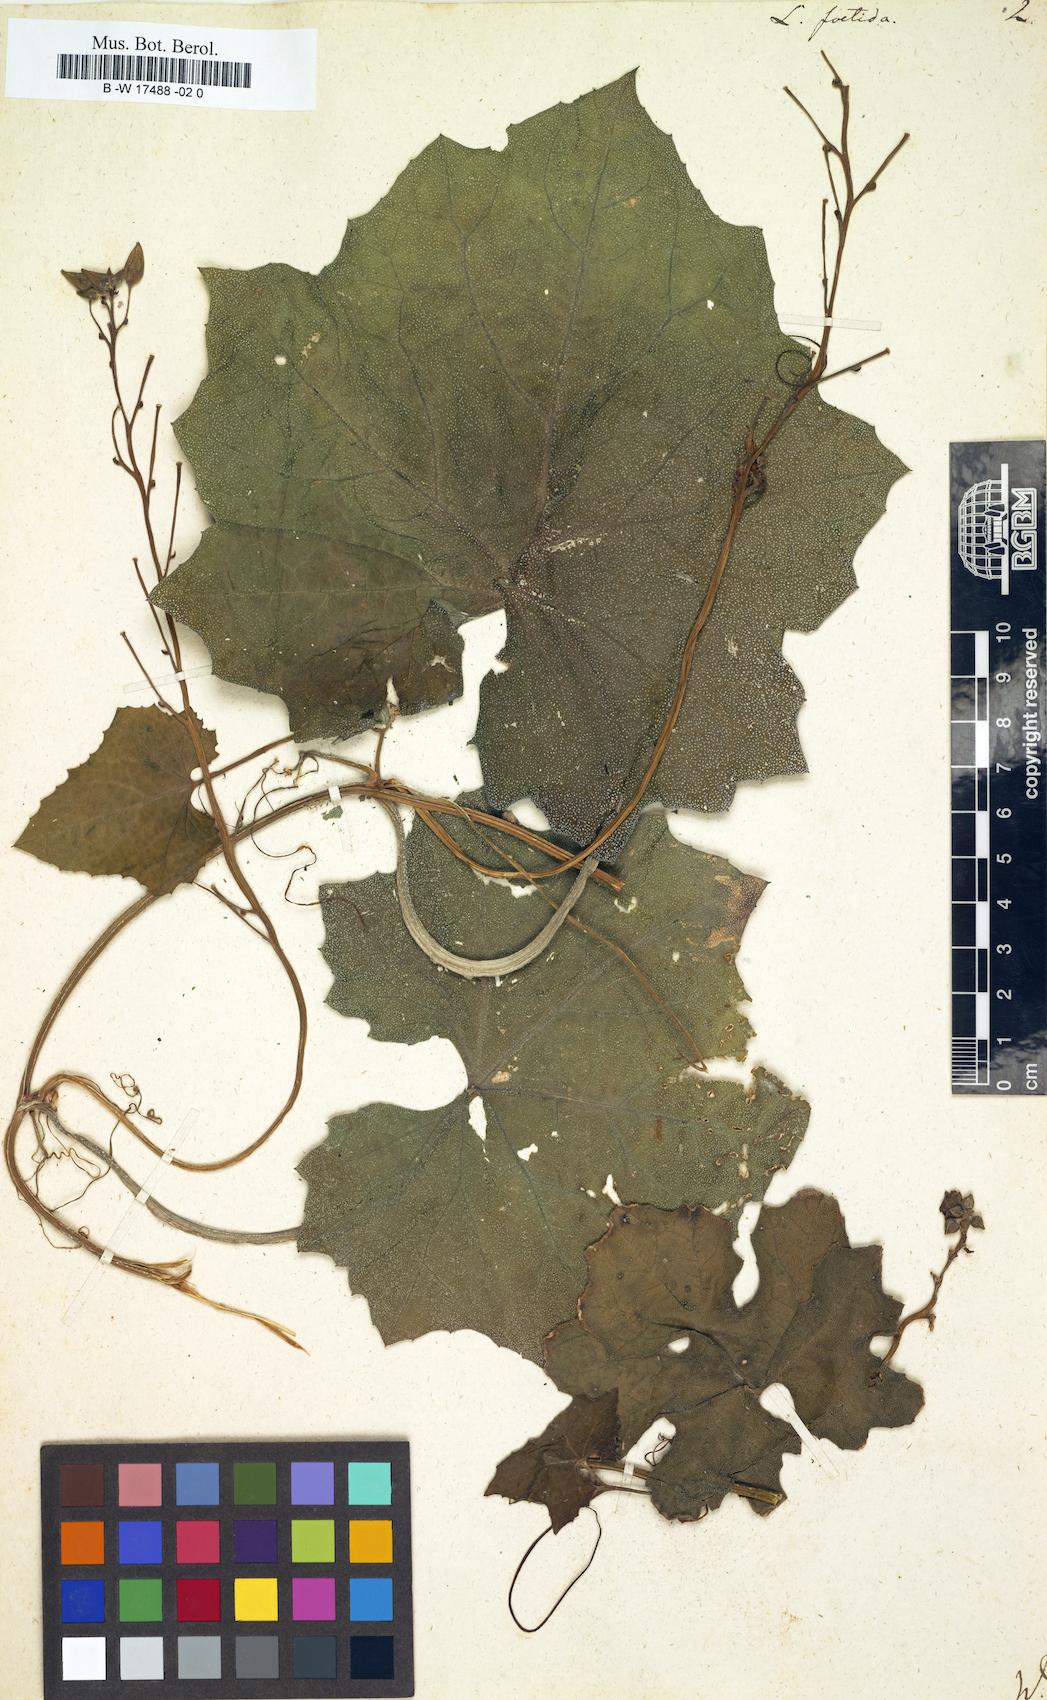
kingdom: Plantae
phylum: Tracheophyta
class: Magnoliopsida
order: Cucurbitales
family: Cucurbitaceae
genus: Luffa
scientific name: Luffa acutangula
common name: Sinkwa towelsponge
